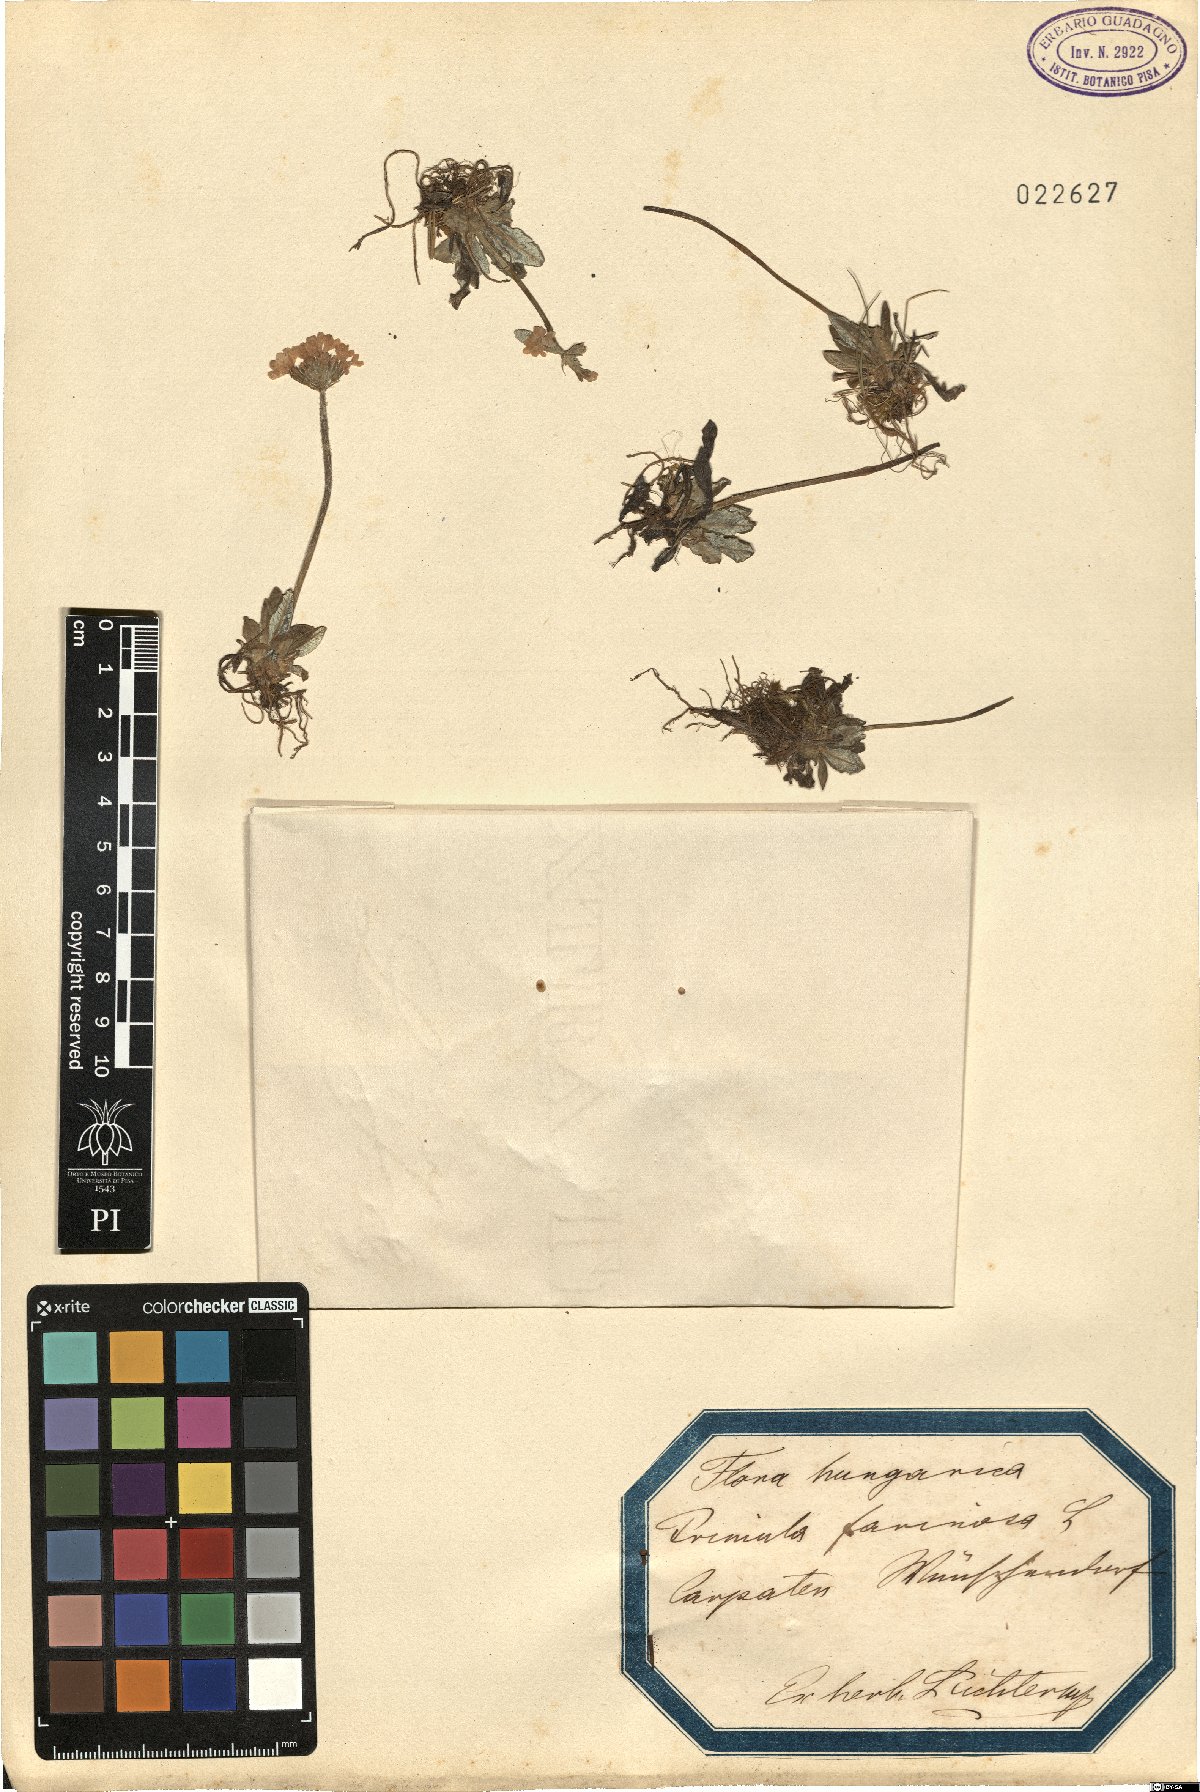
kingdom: Plantae
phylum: Tracheophyta
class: Magnoliopsida
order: Ericales
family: Primulaceae
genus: Primula
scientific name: Primula farinosa
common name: Bird's-eye primrose
